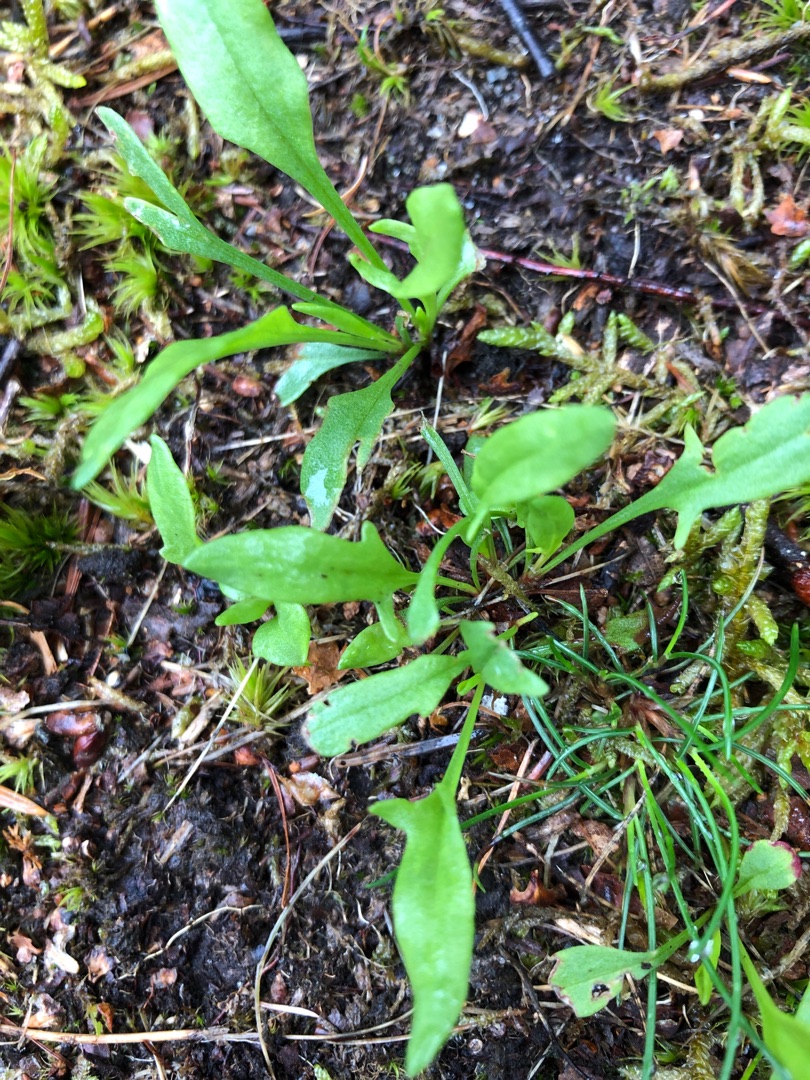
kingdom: Plantae
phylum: Tracheophyta
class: Magnoliopsida
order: Caryophyllales
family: Polygonaceae
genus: Rumex
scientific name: Rumex acetosella
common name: Rødknæ
